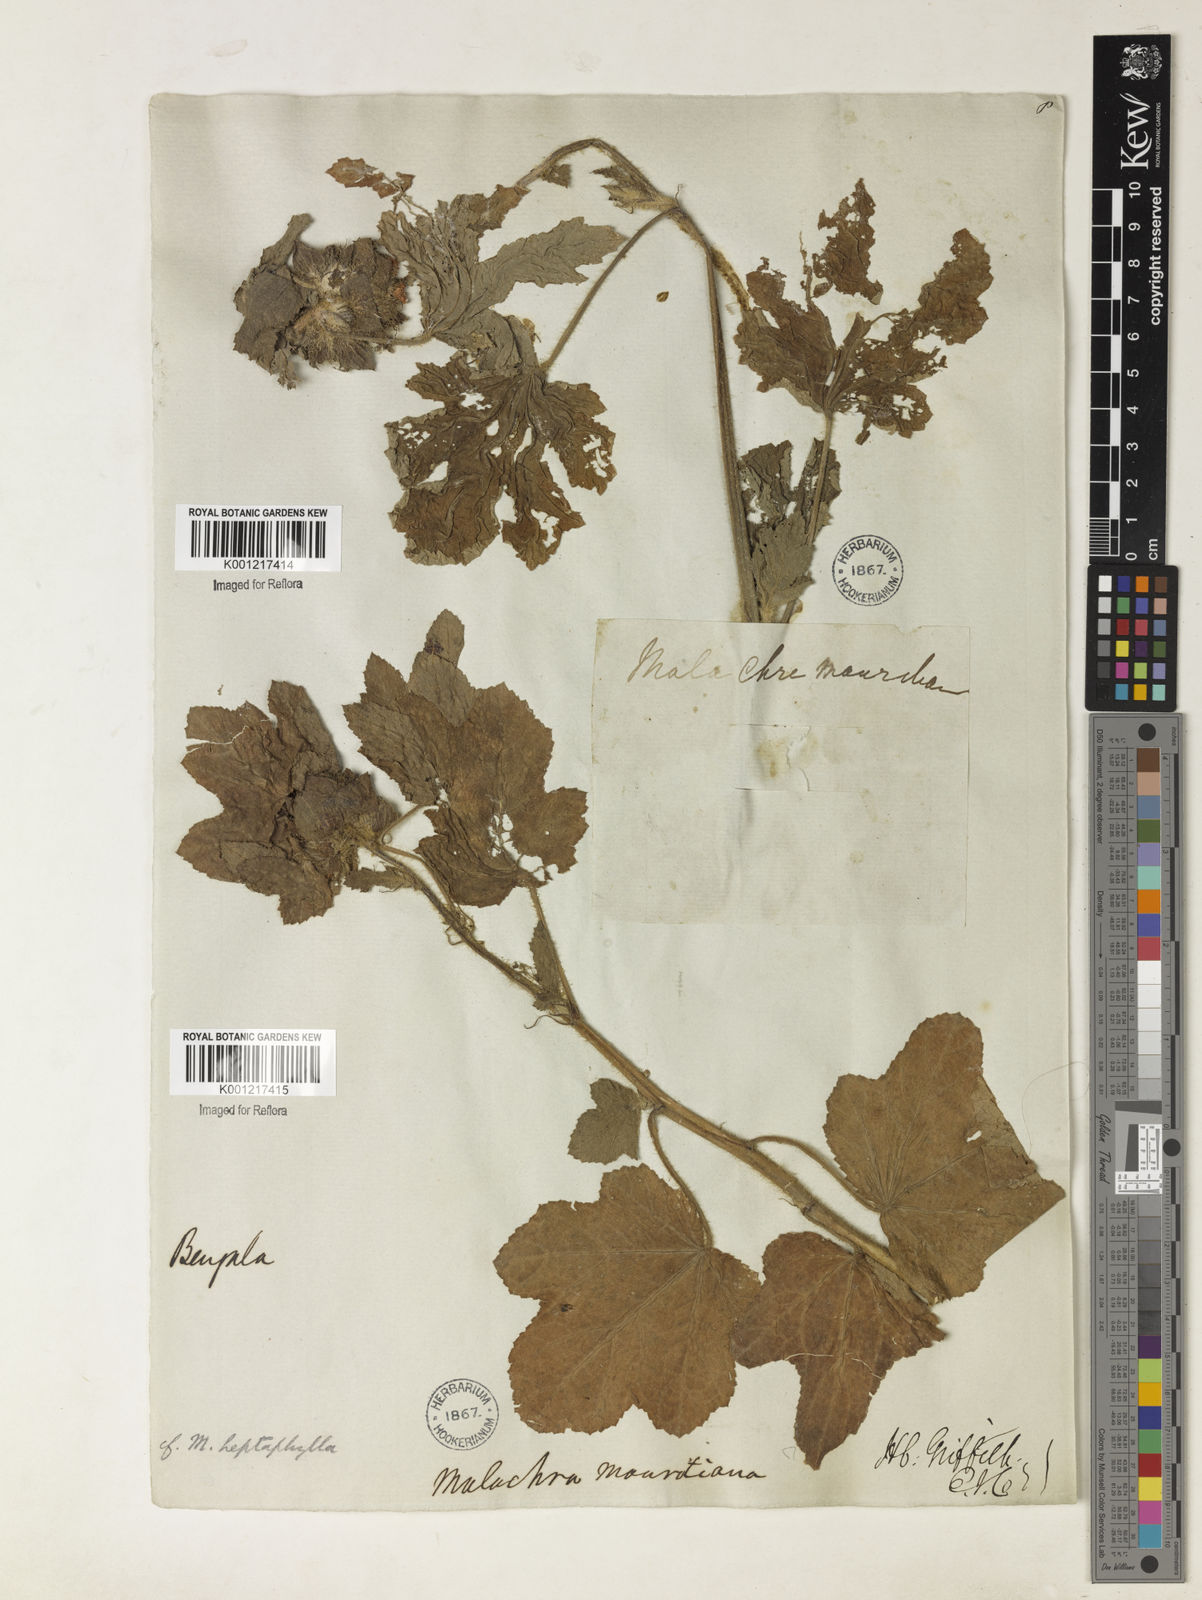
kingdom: Plantae
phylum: Tracheophyta
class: Magnoliopsida
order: Malvales
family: Malvaceae
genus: Malachra
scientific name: Malachra capitata
